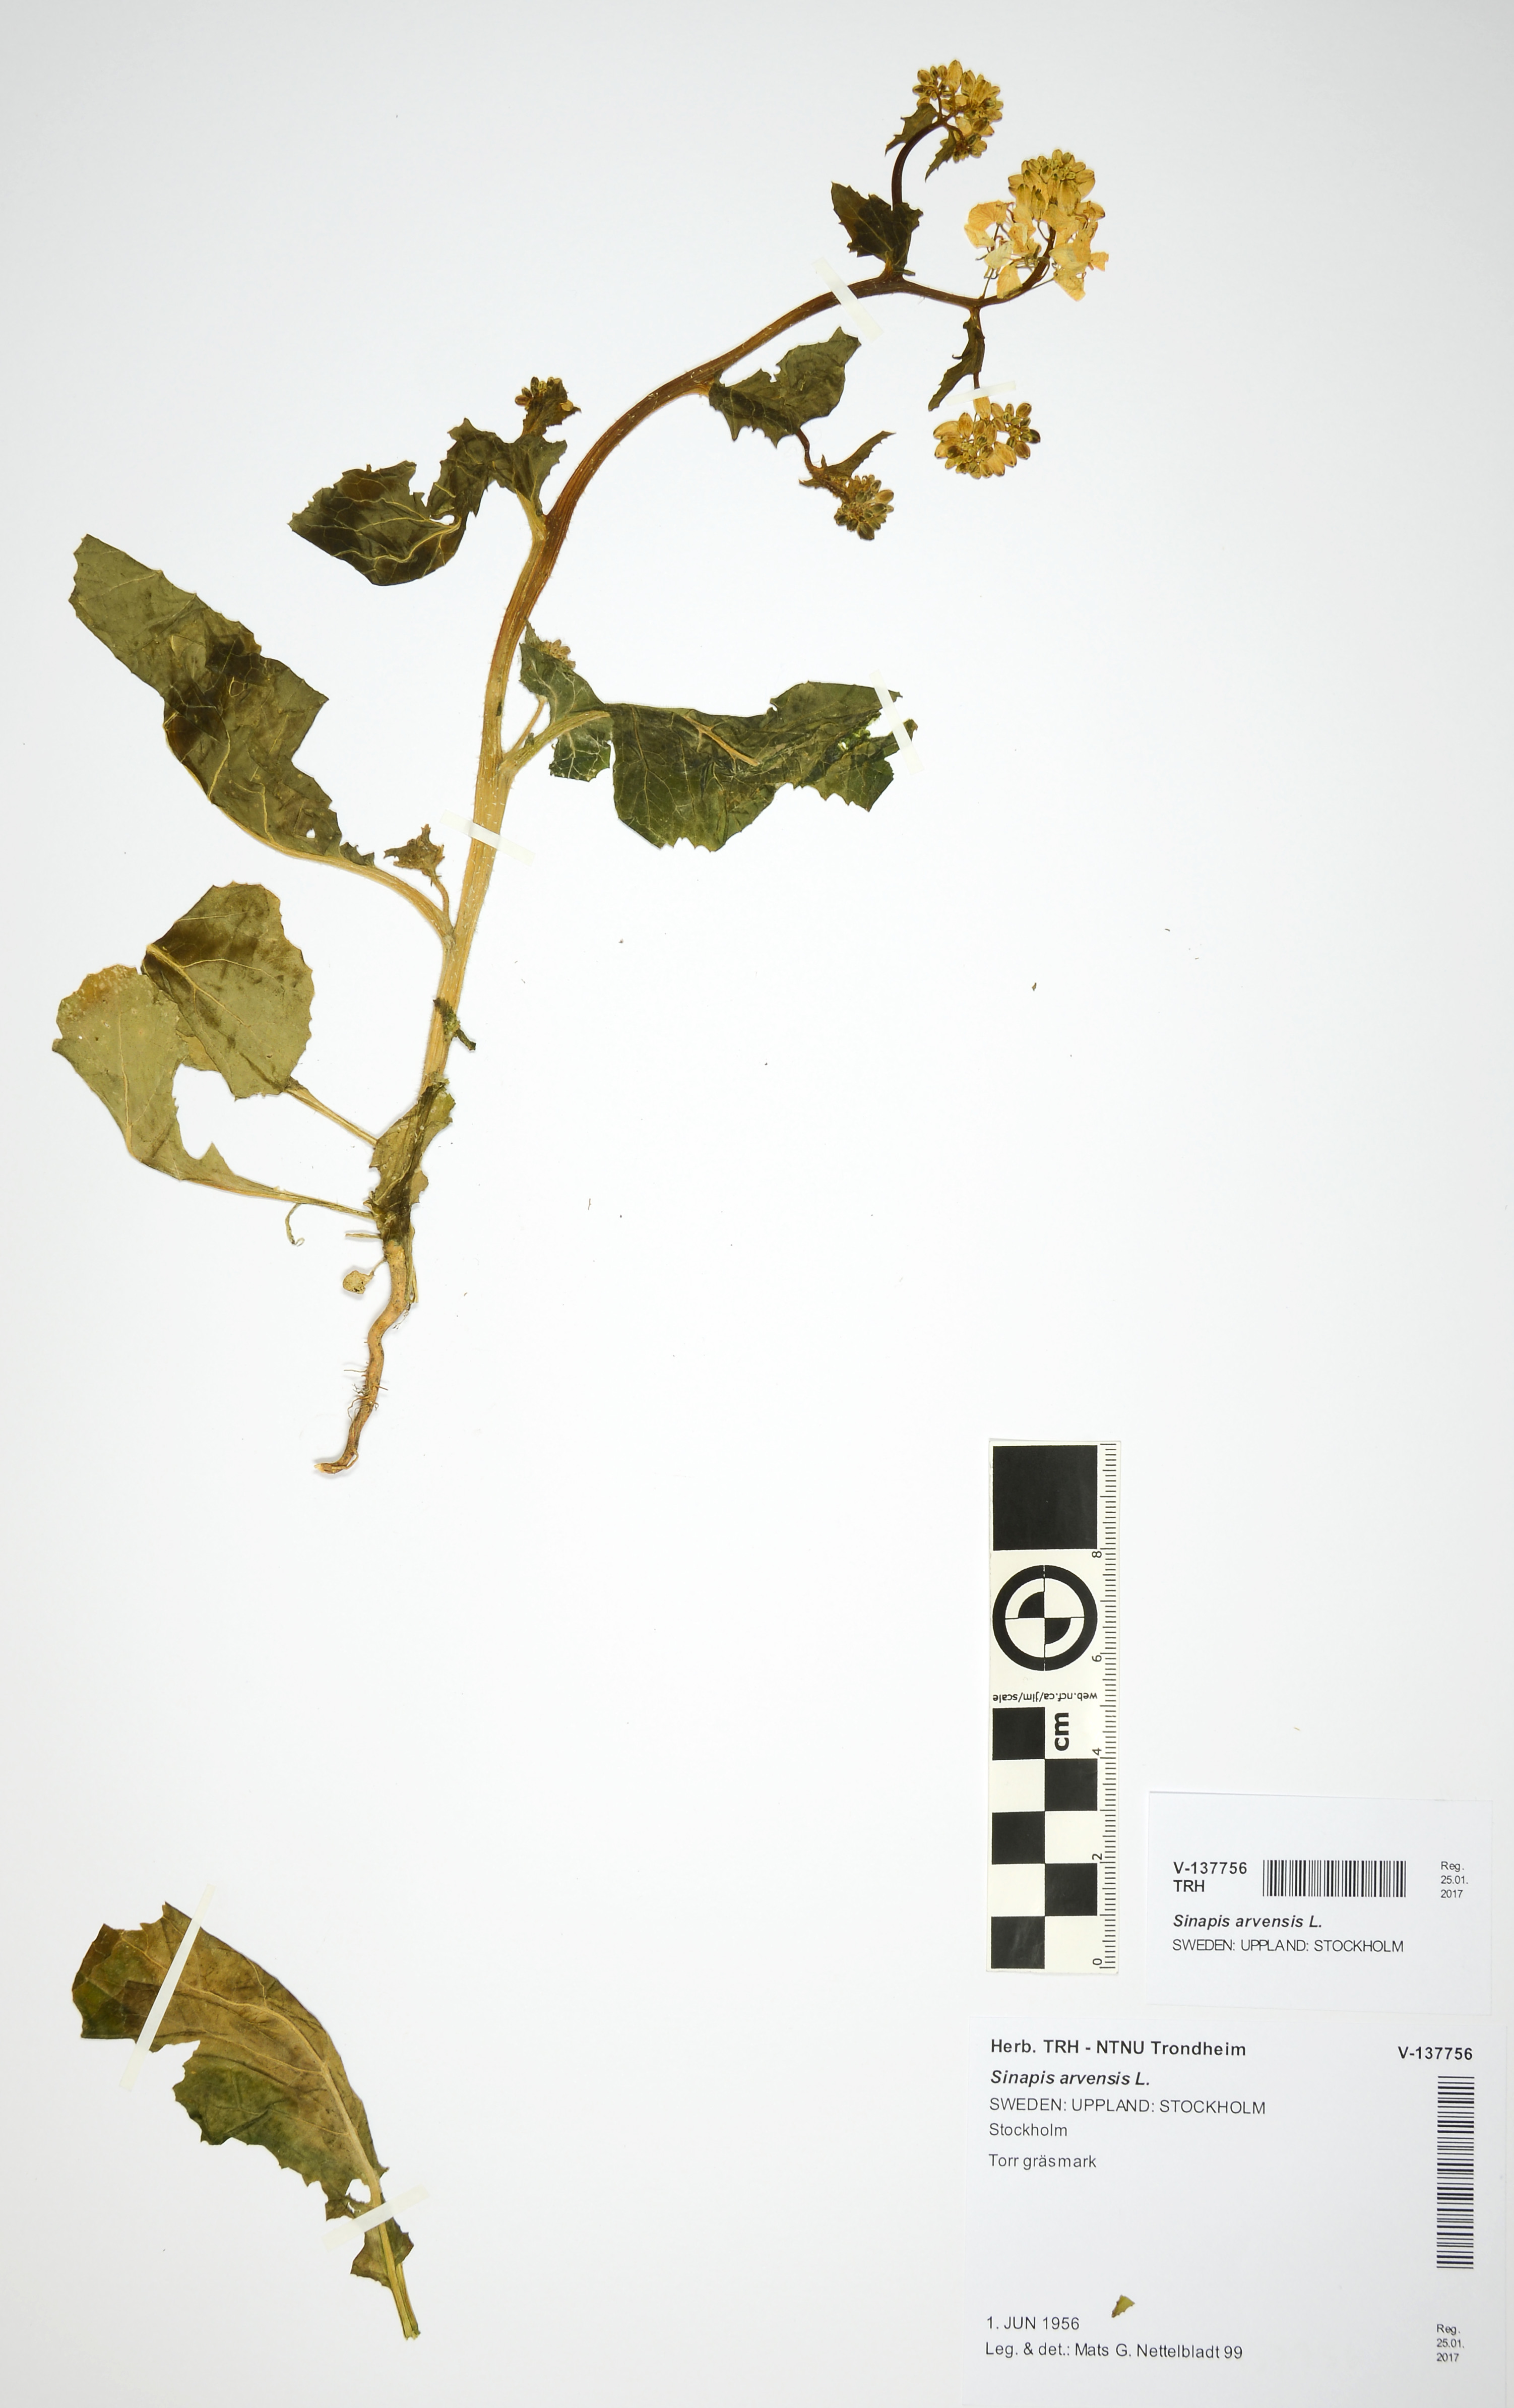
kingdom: Plantae
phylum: Tracheophyta
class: Magnoliopsida
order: Brassicales
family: Brassicaceae
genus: Sinapis
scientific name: Sinapis arvensis
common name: Charlock
